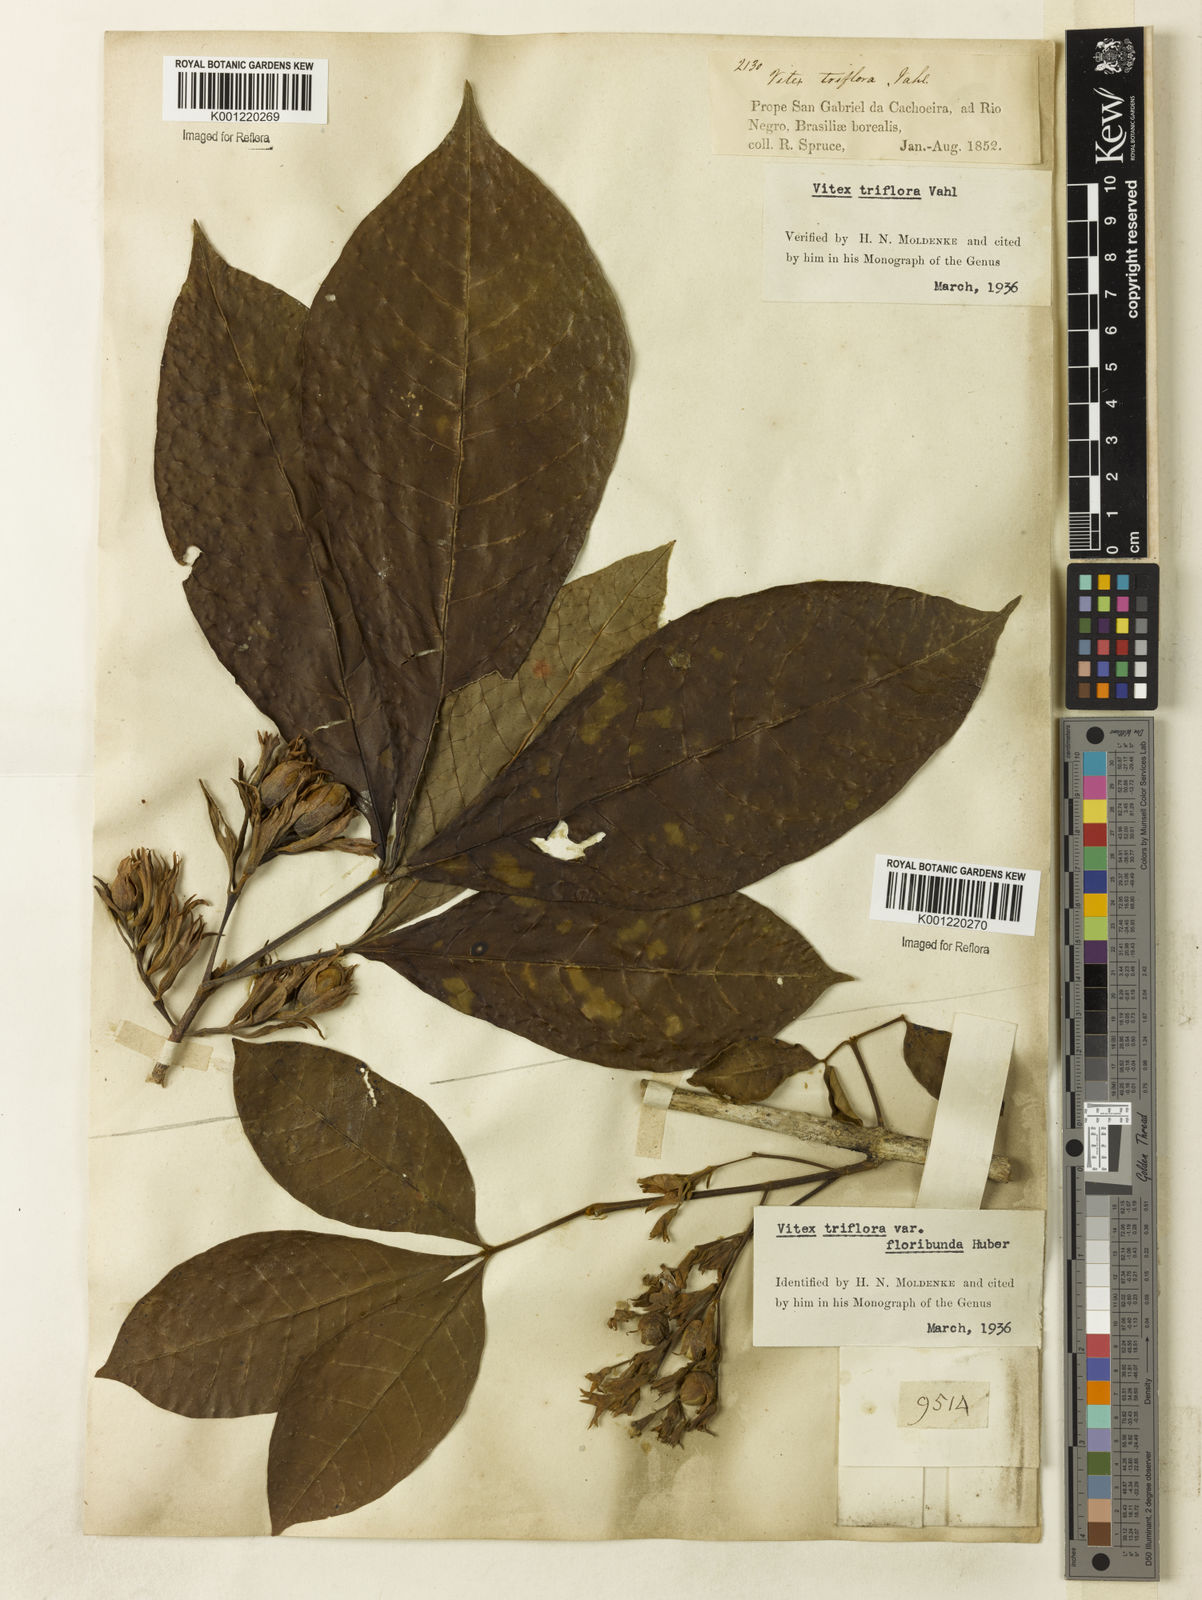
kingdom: Plantae
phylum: Tracheophyta
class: Magnoliopsida
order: Lamiales
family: Lamiaceae
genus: Vitex
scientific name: Vitex triflora
